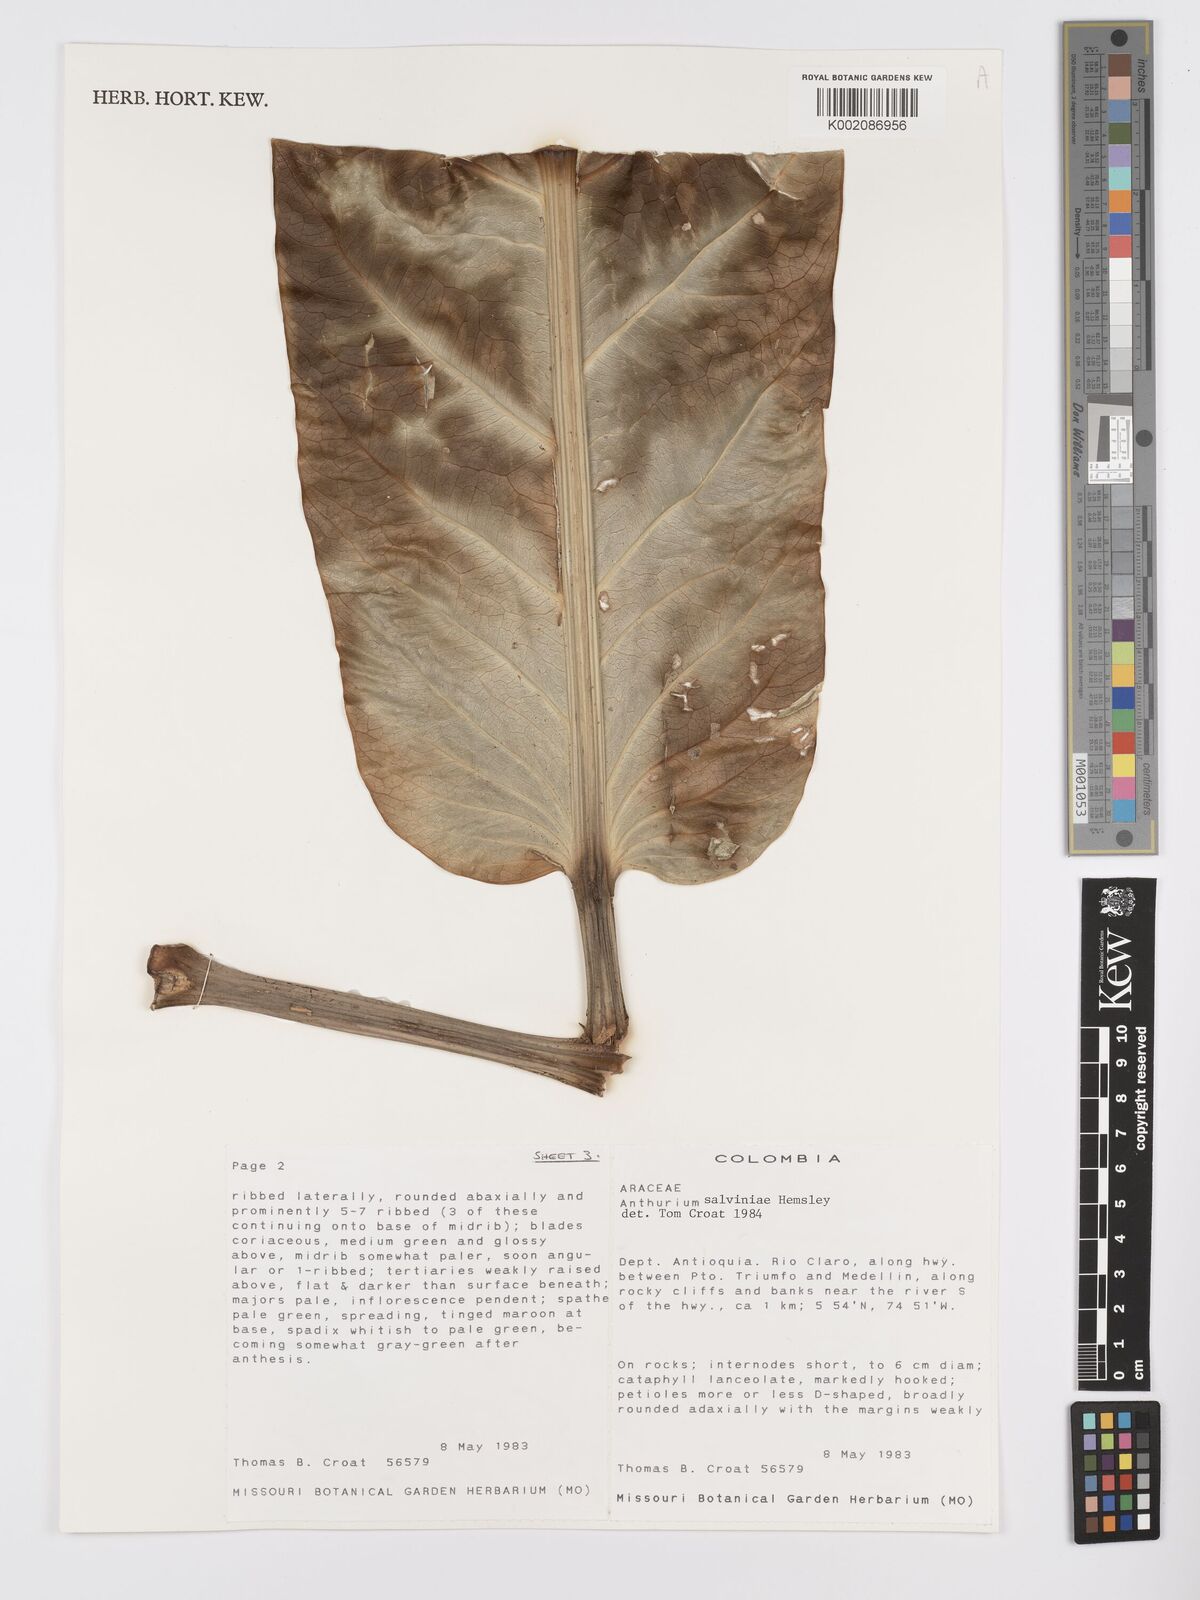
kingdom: Plantae
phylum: Tracheophyta
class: Liliopsida
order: Alismatales
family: Araceae
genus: Anthurium
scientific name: Anthurium salvinii
